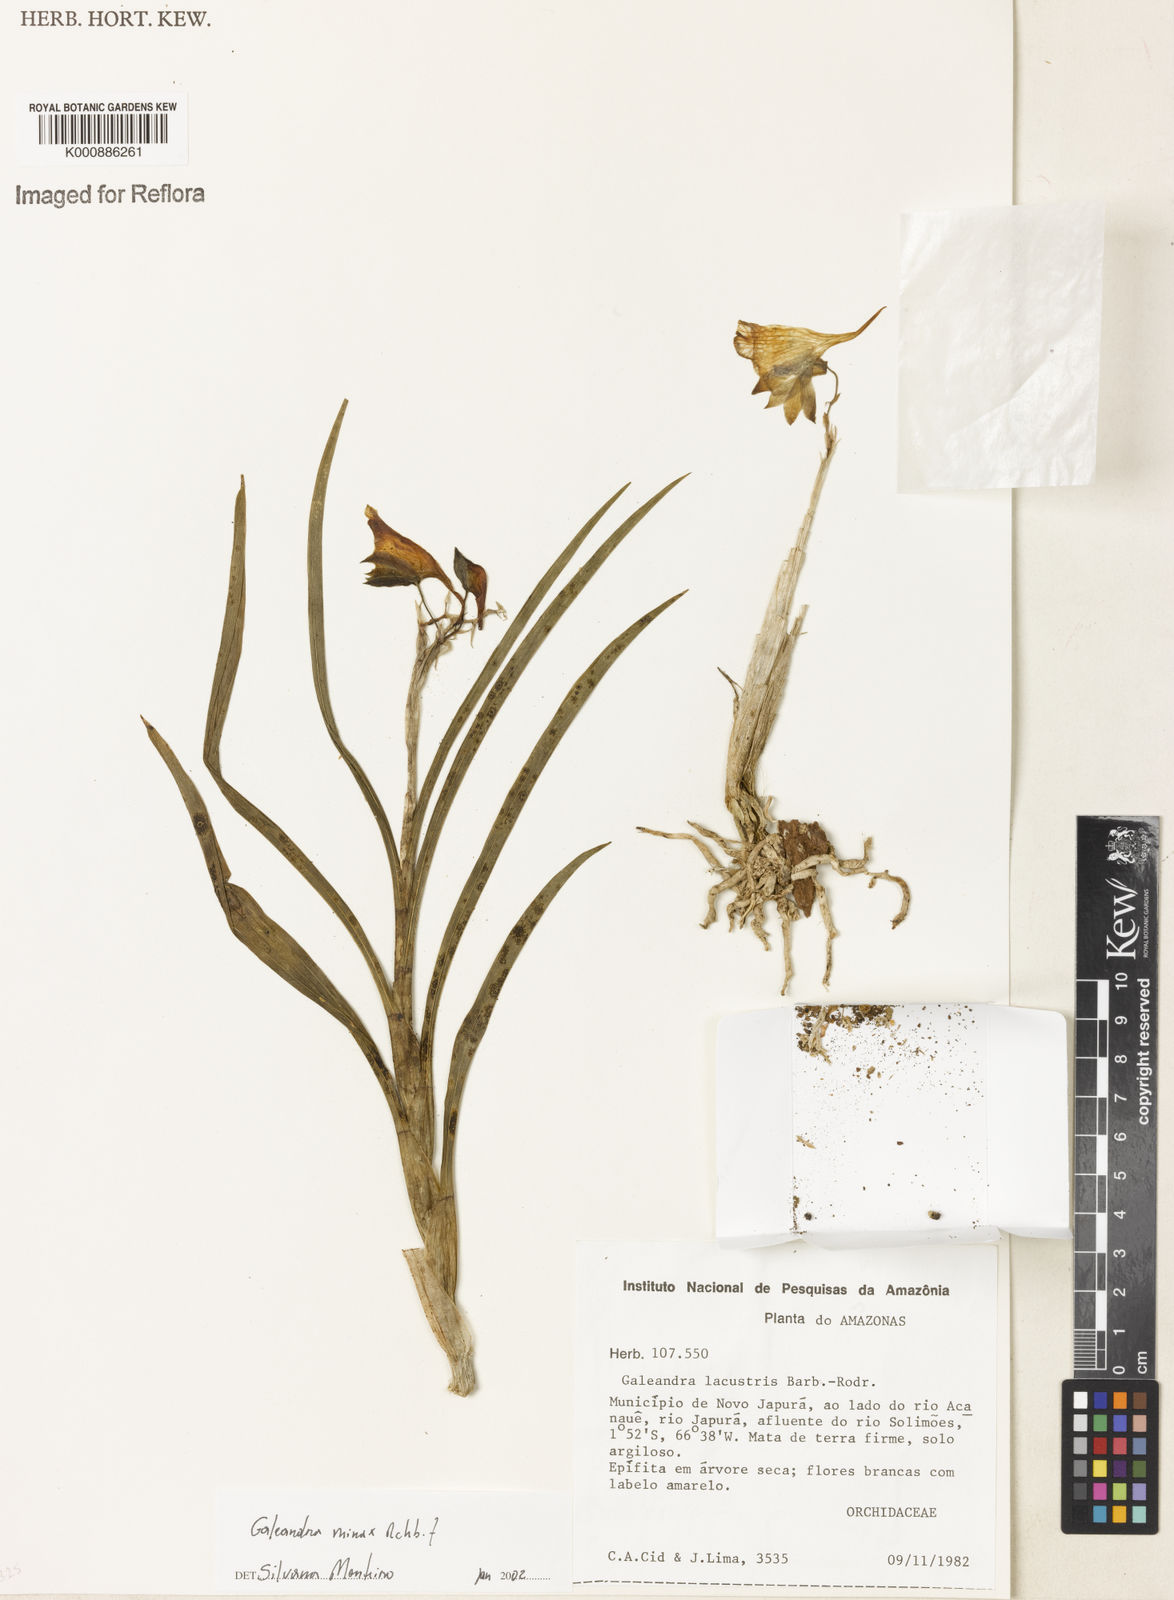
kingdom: Plantae
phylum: Tracheophyta
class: Liliopsida
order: Asparagales
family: Orchidaceae
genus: Galeandra
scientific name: Galeandra minax
